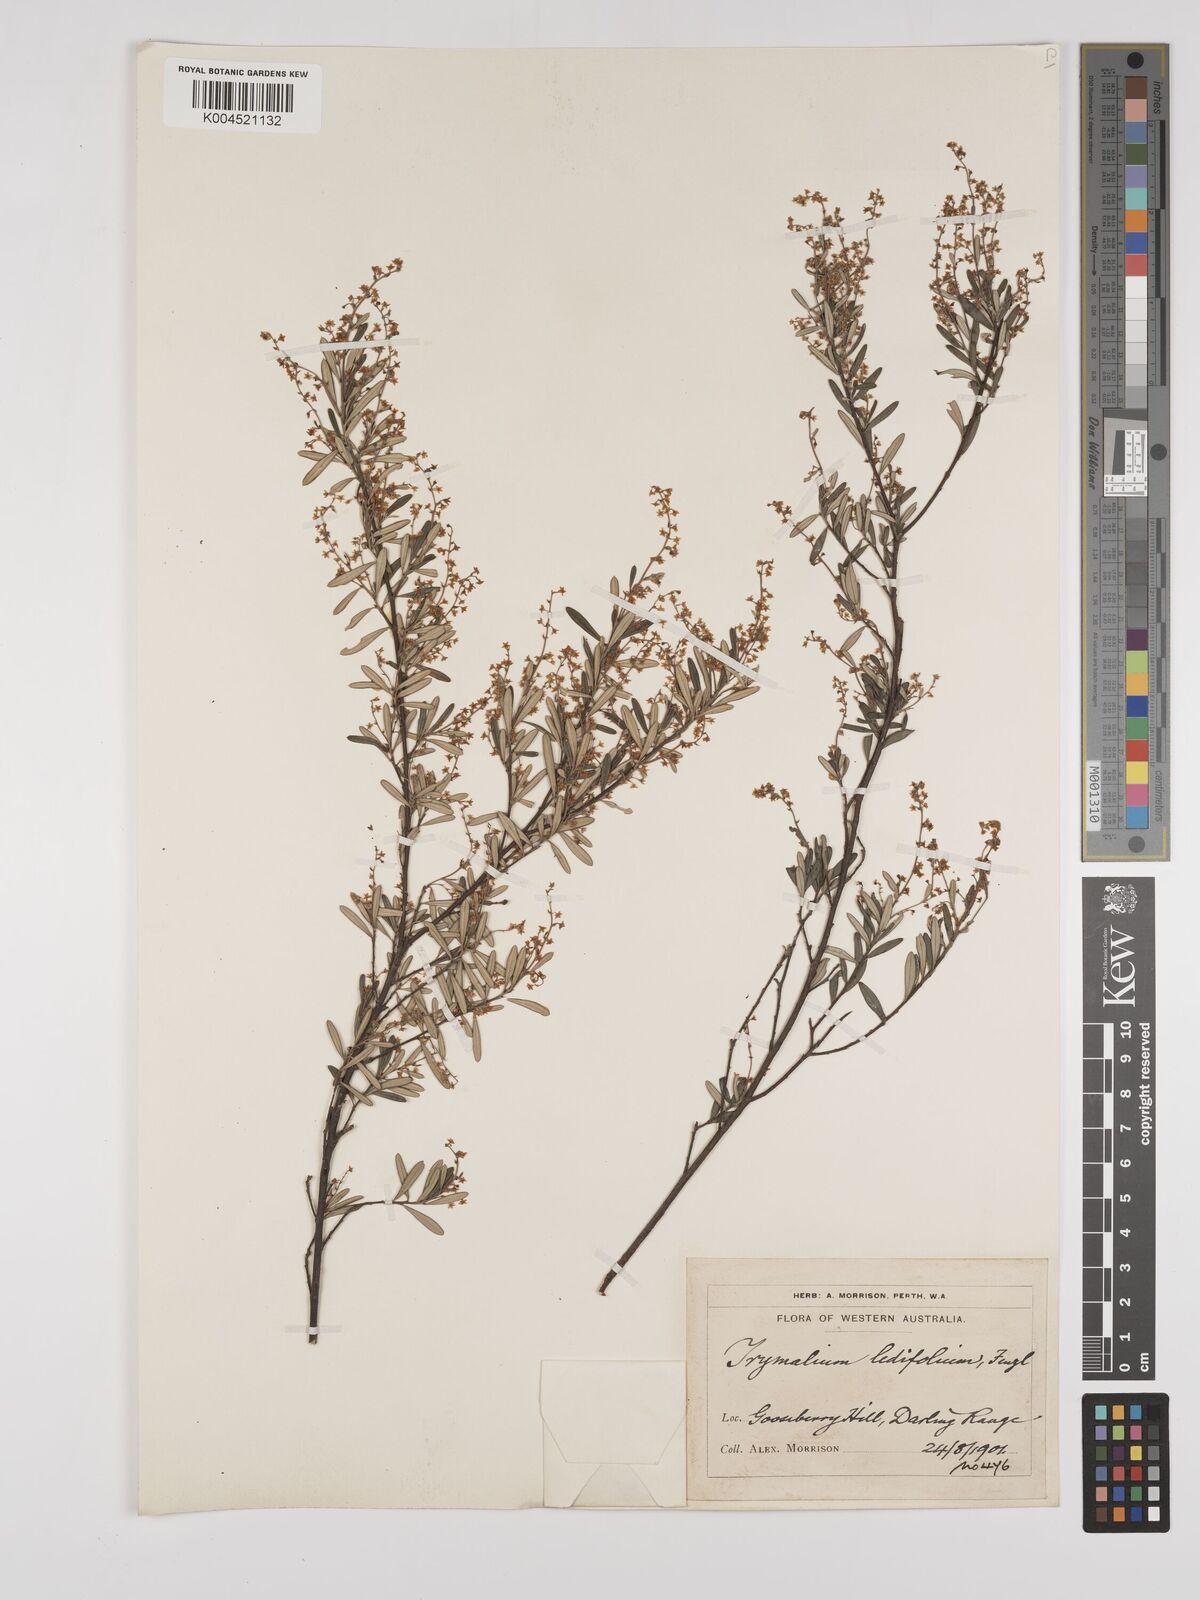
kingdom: Plantae
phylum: Tracheophyta
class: Magnoliopsida
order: Rosales
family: Rhamnaceae
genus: Trymalium
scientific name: Trymalium ledifolium
